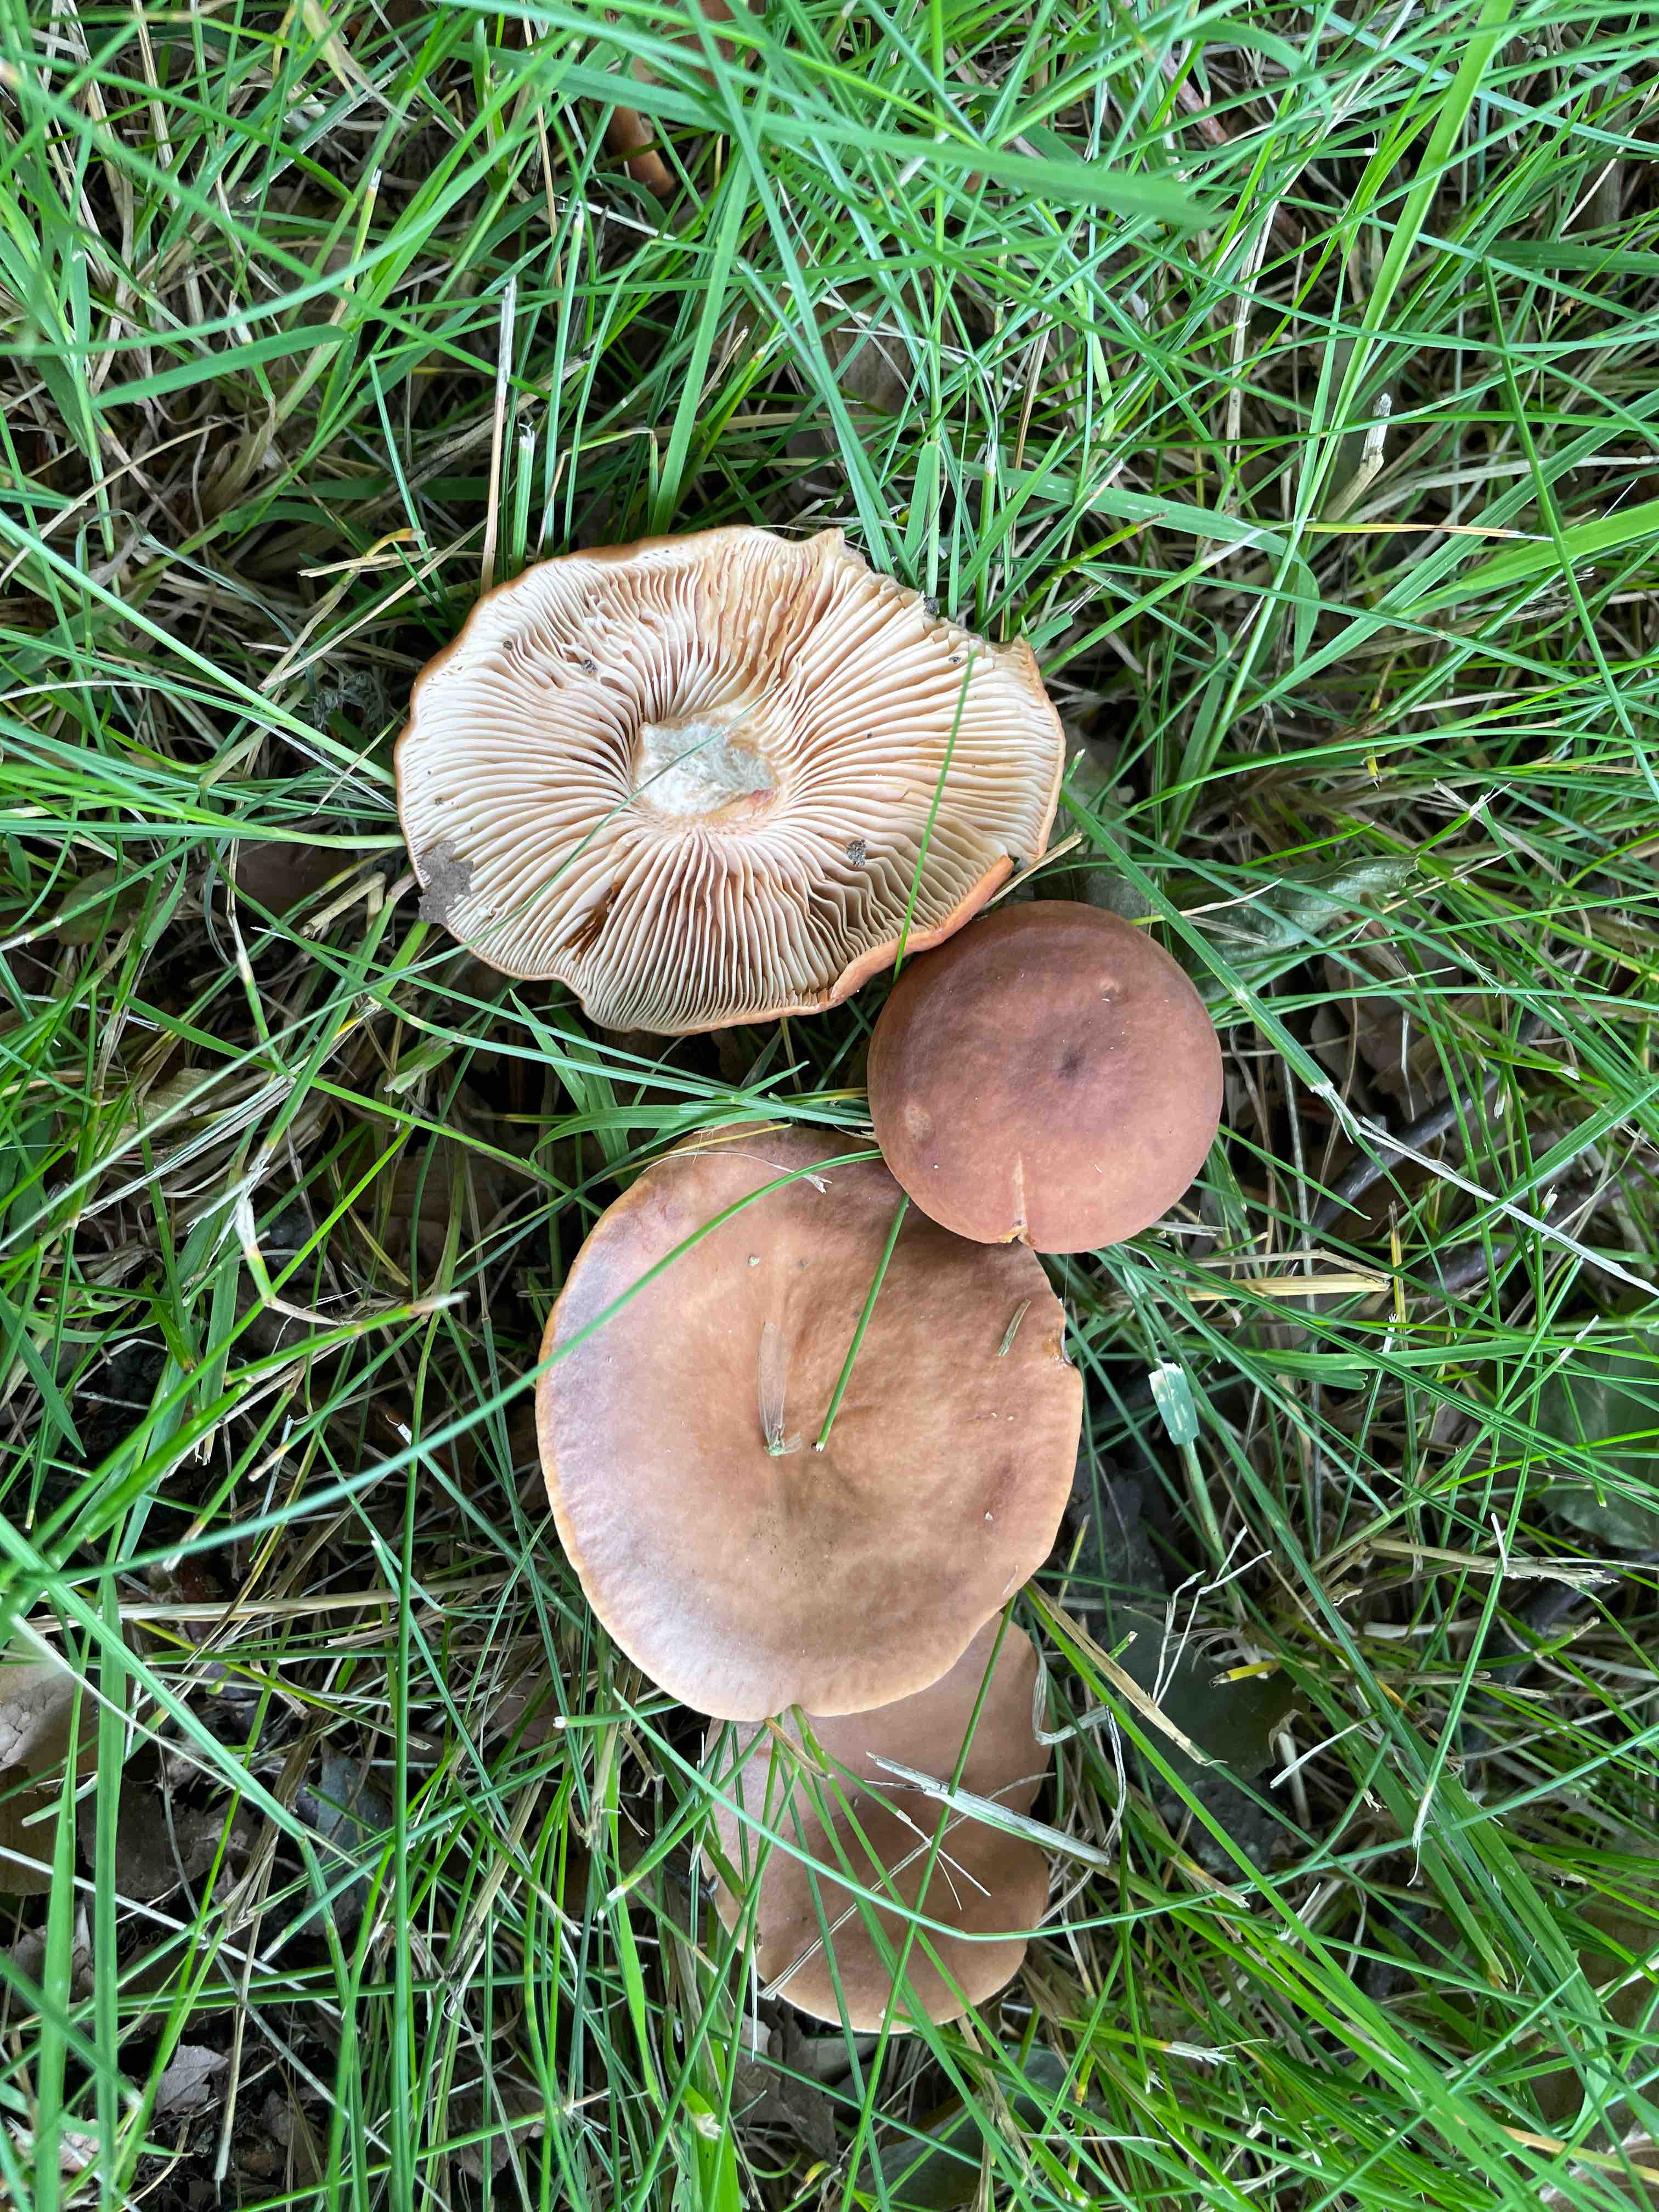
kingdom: Fungi
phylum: Basidiomycota
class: Agaricomycetes
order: Russulales
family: Russulaceae
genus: Lactarius
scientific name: Lactarius subdulcis
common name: sødlig mælkehat
